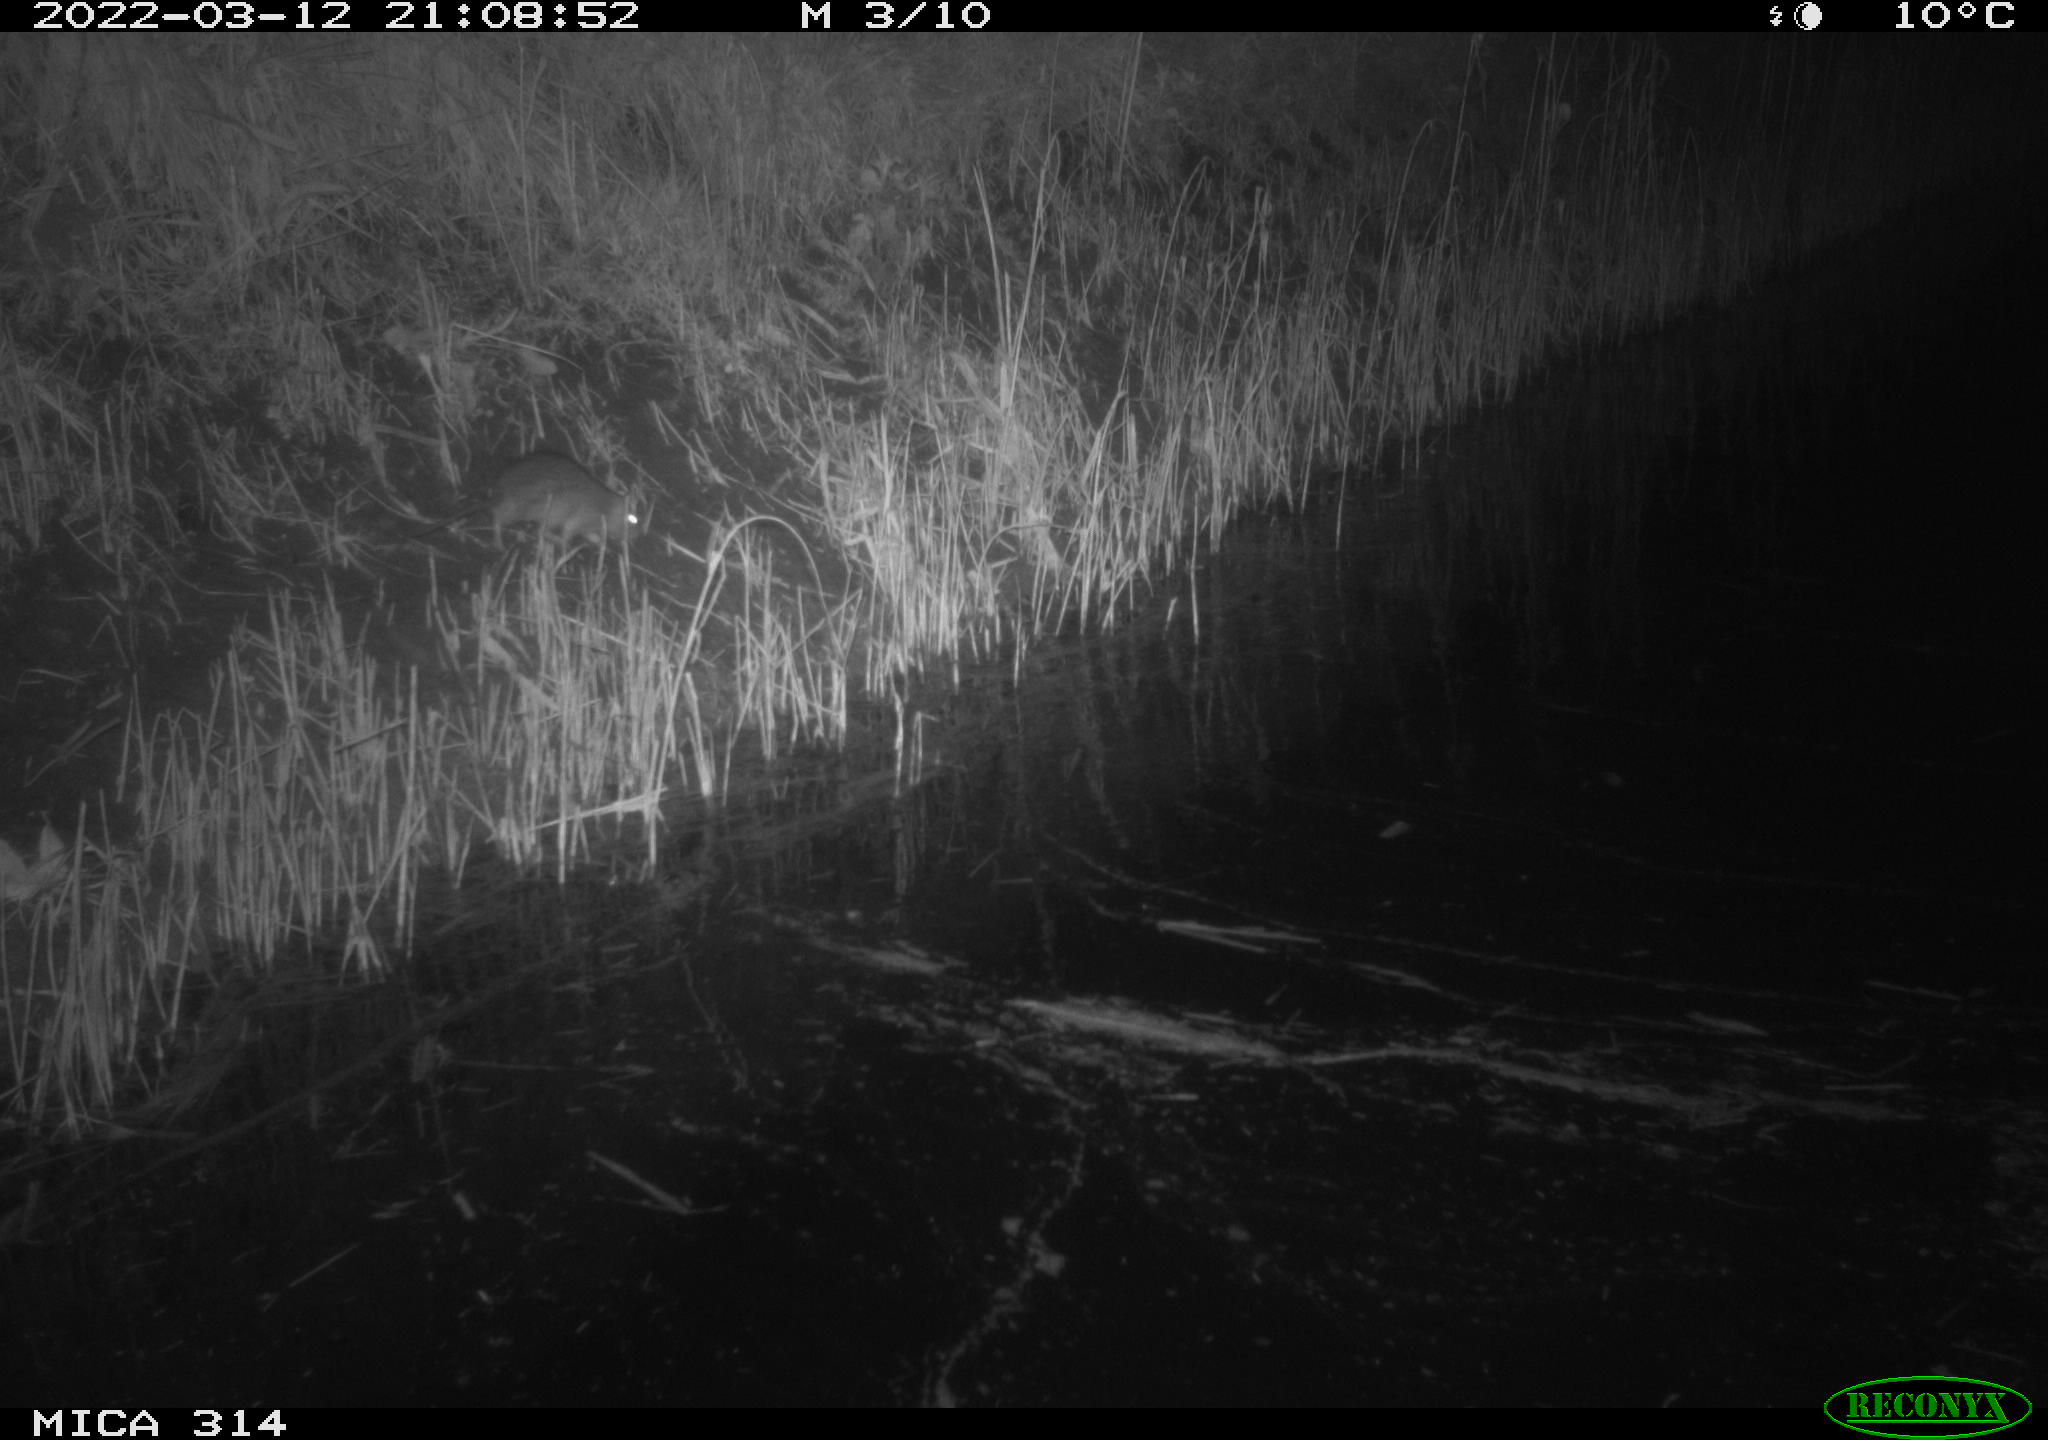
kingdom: Animalia
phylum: Chordata
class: Mammalia
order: Rodentia
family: Muridae
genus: Rattus
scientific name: Rattus norvegicus
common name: Brown rat
